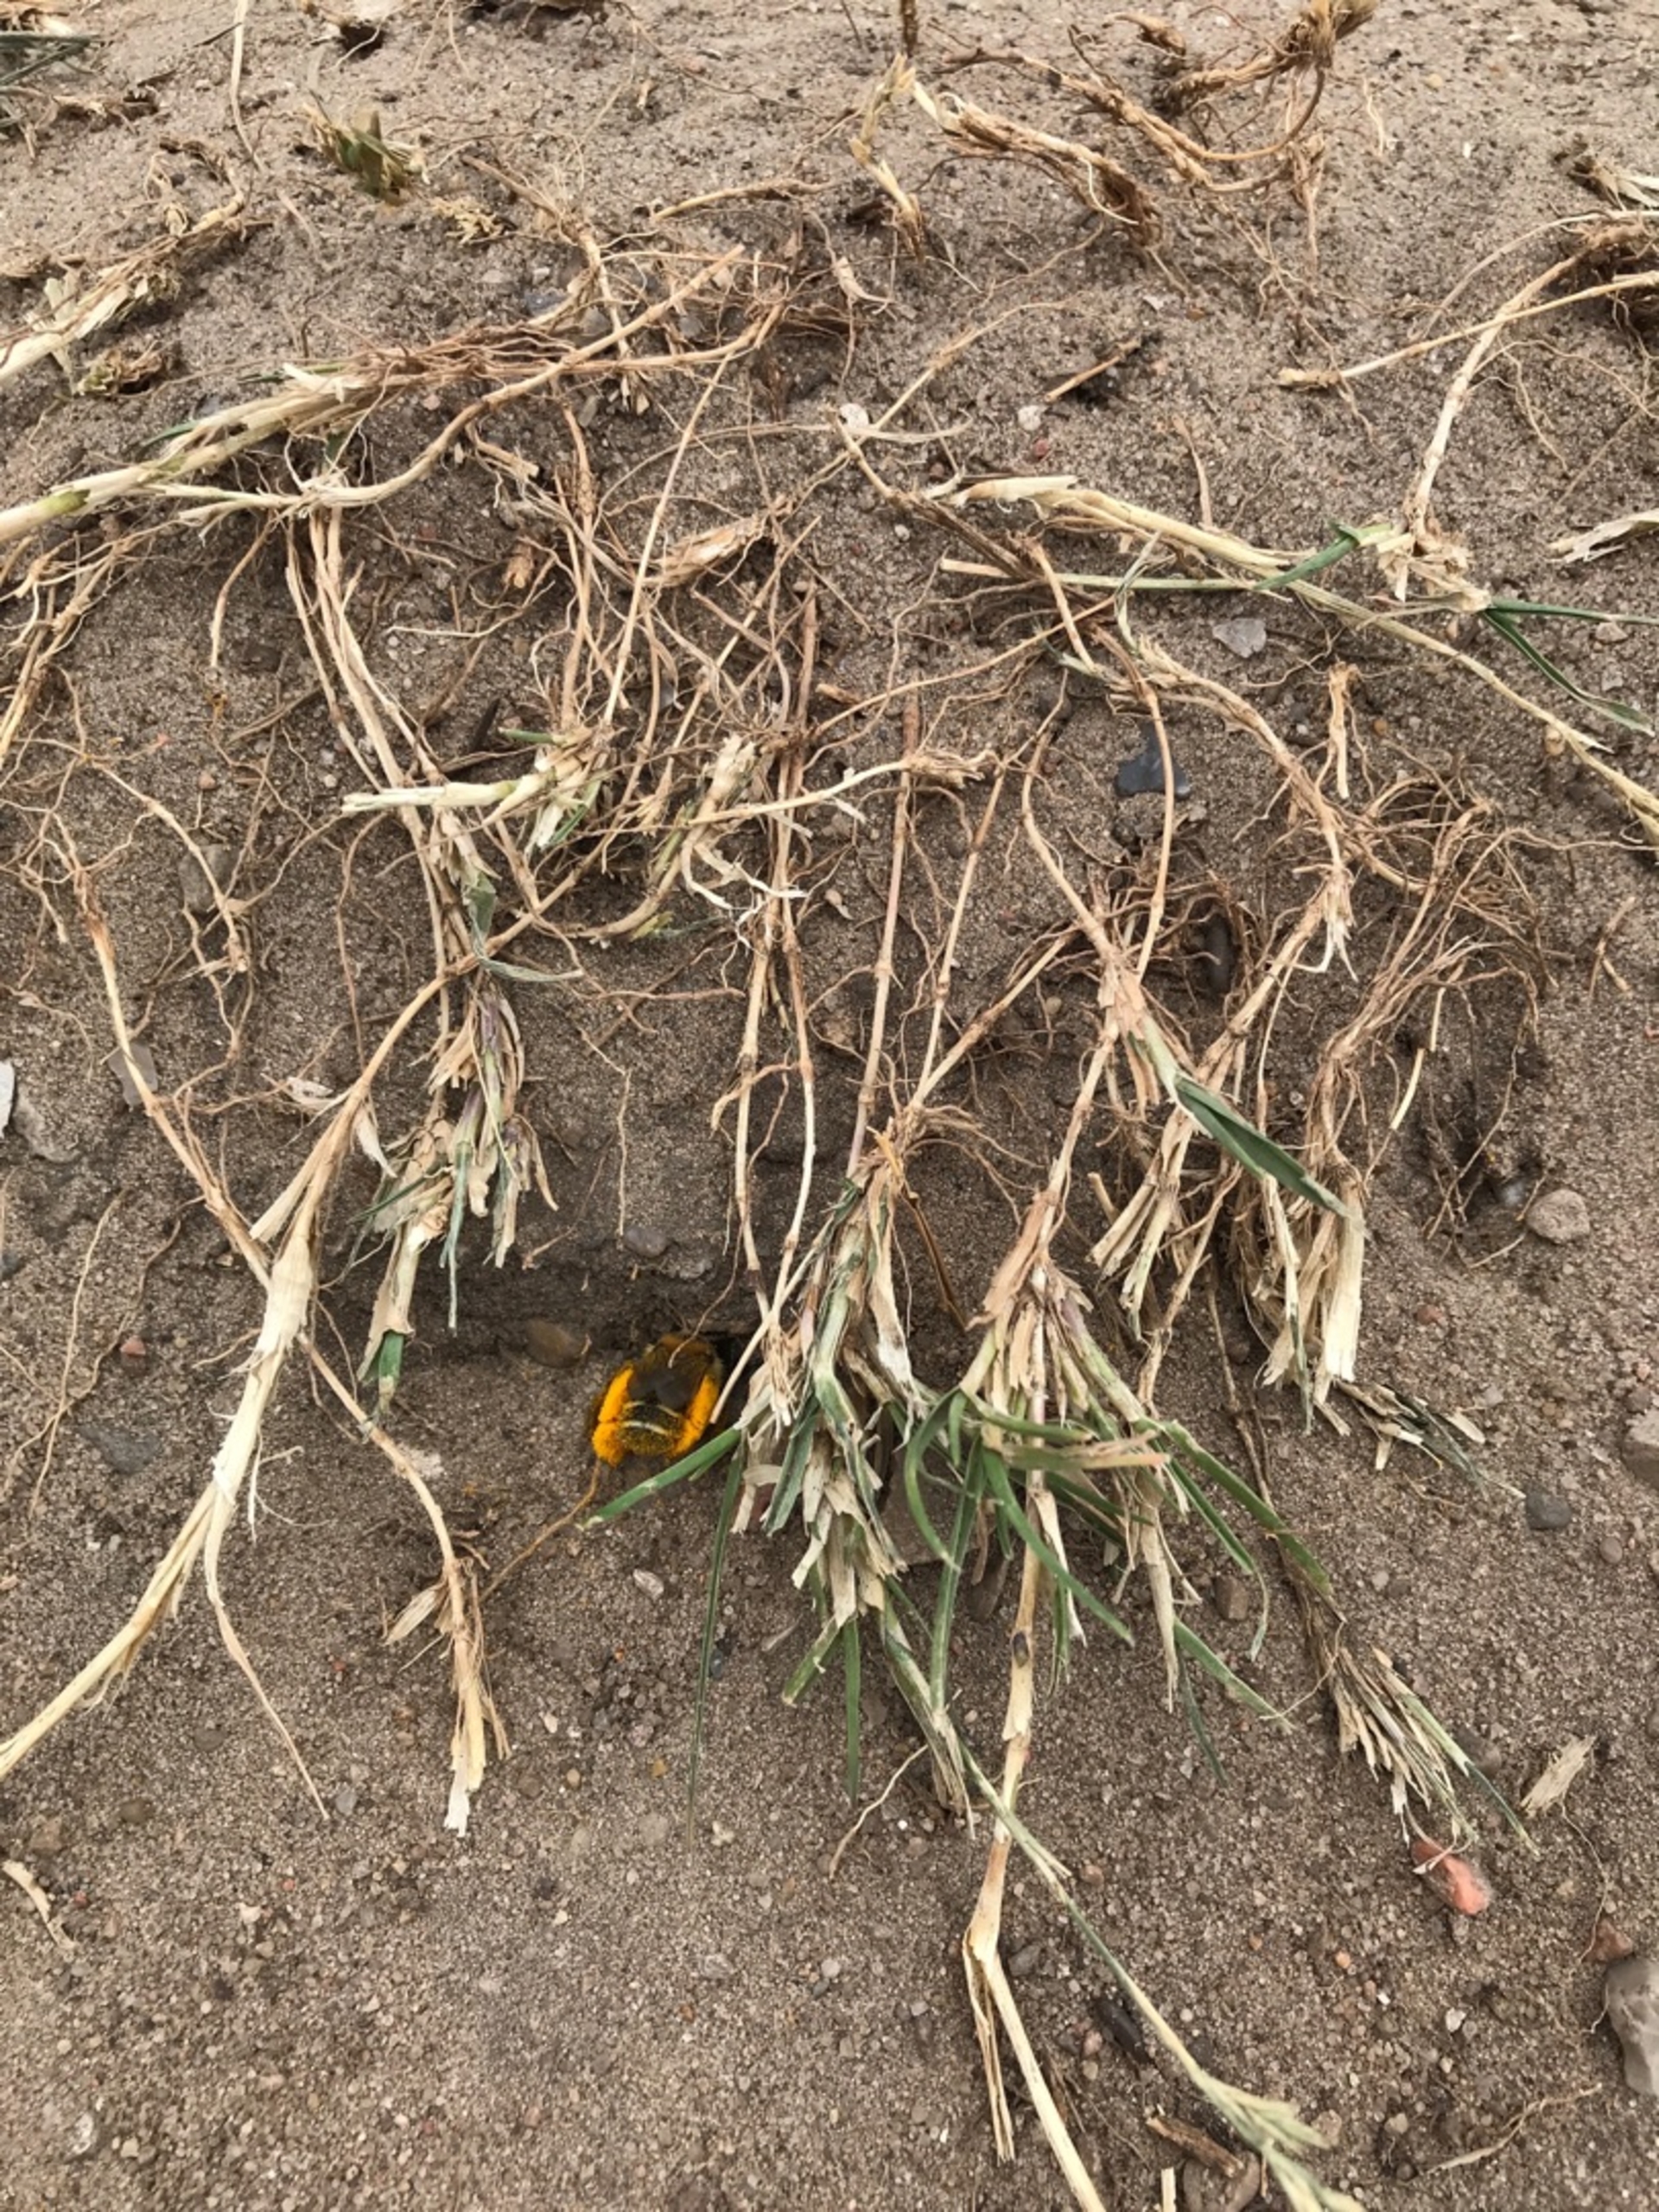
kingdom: Animalia
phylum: Arthropoda
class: Insecta
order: Hymenoptera
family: Melittidae
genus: Dasypoda
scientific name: Dasypoda hirtipes
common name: Pragtbuksebi
